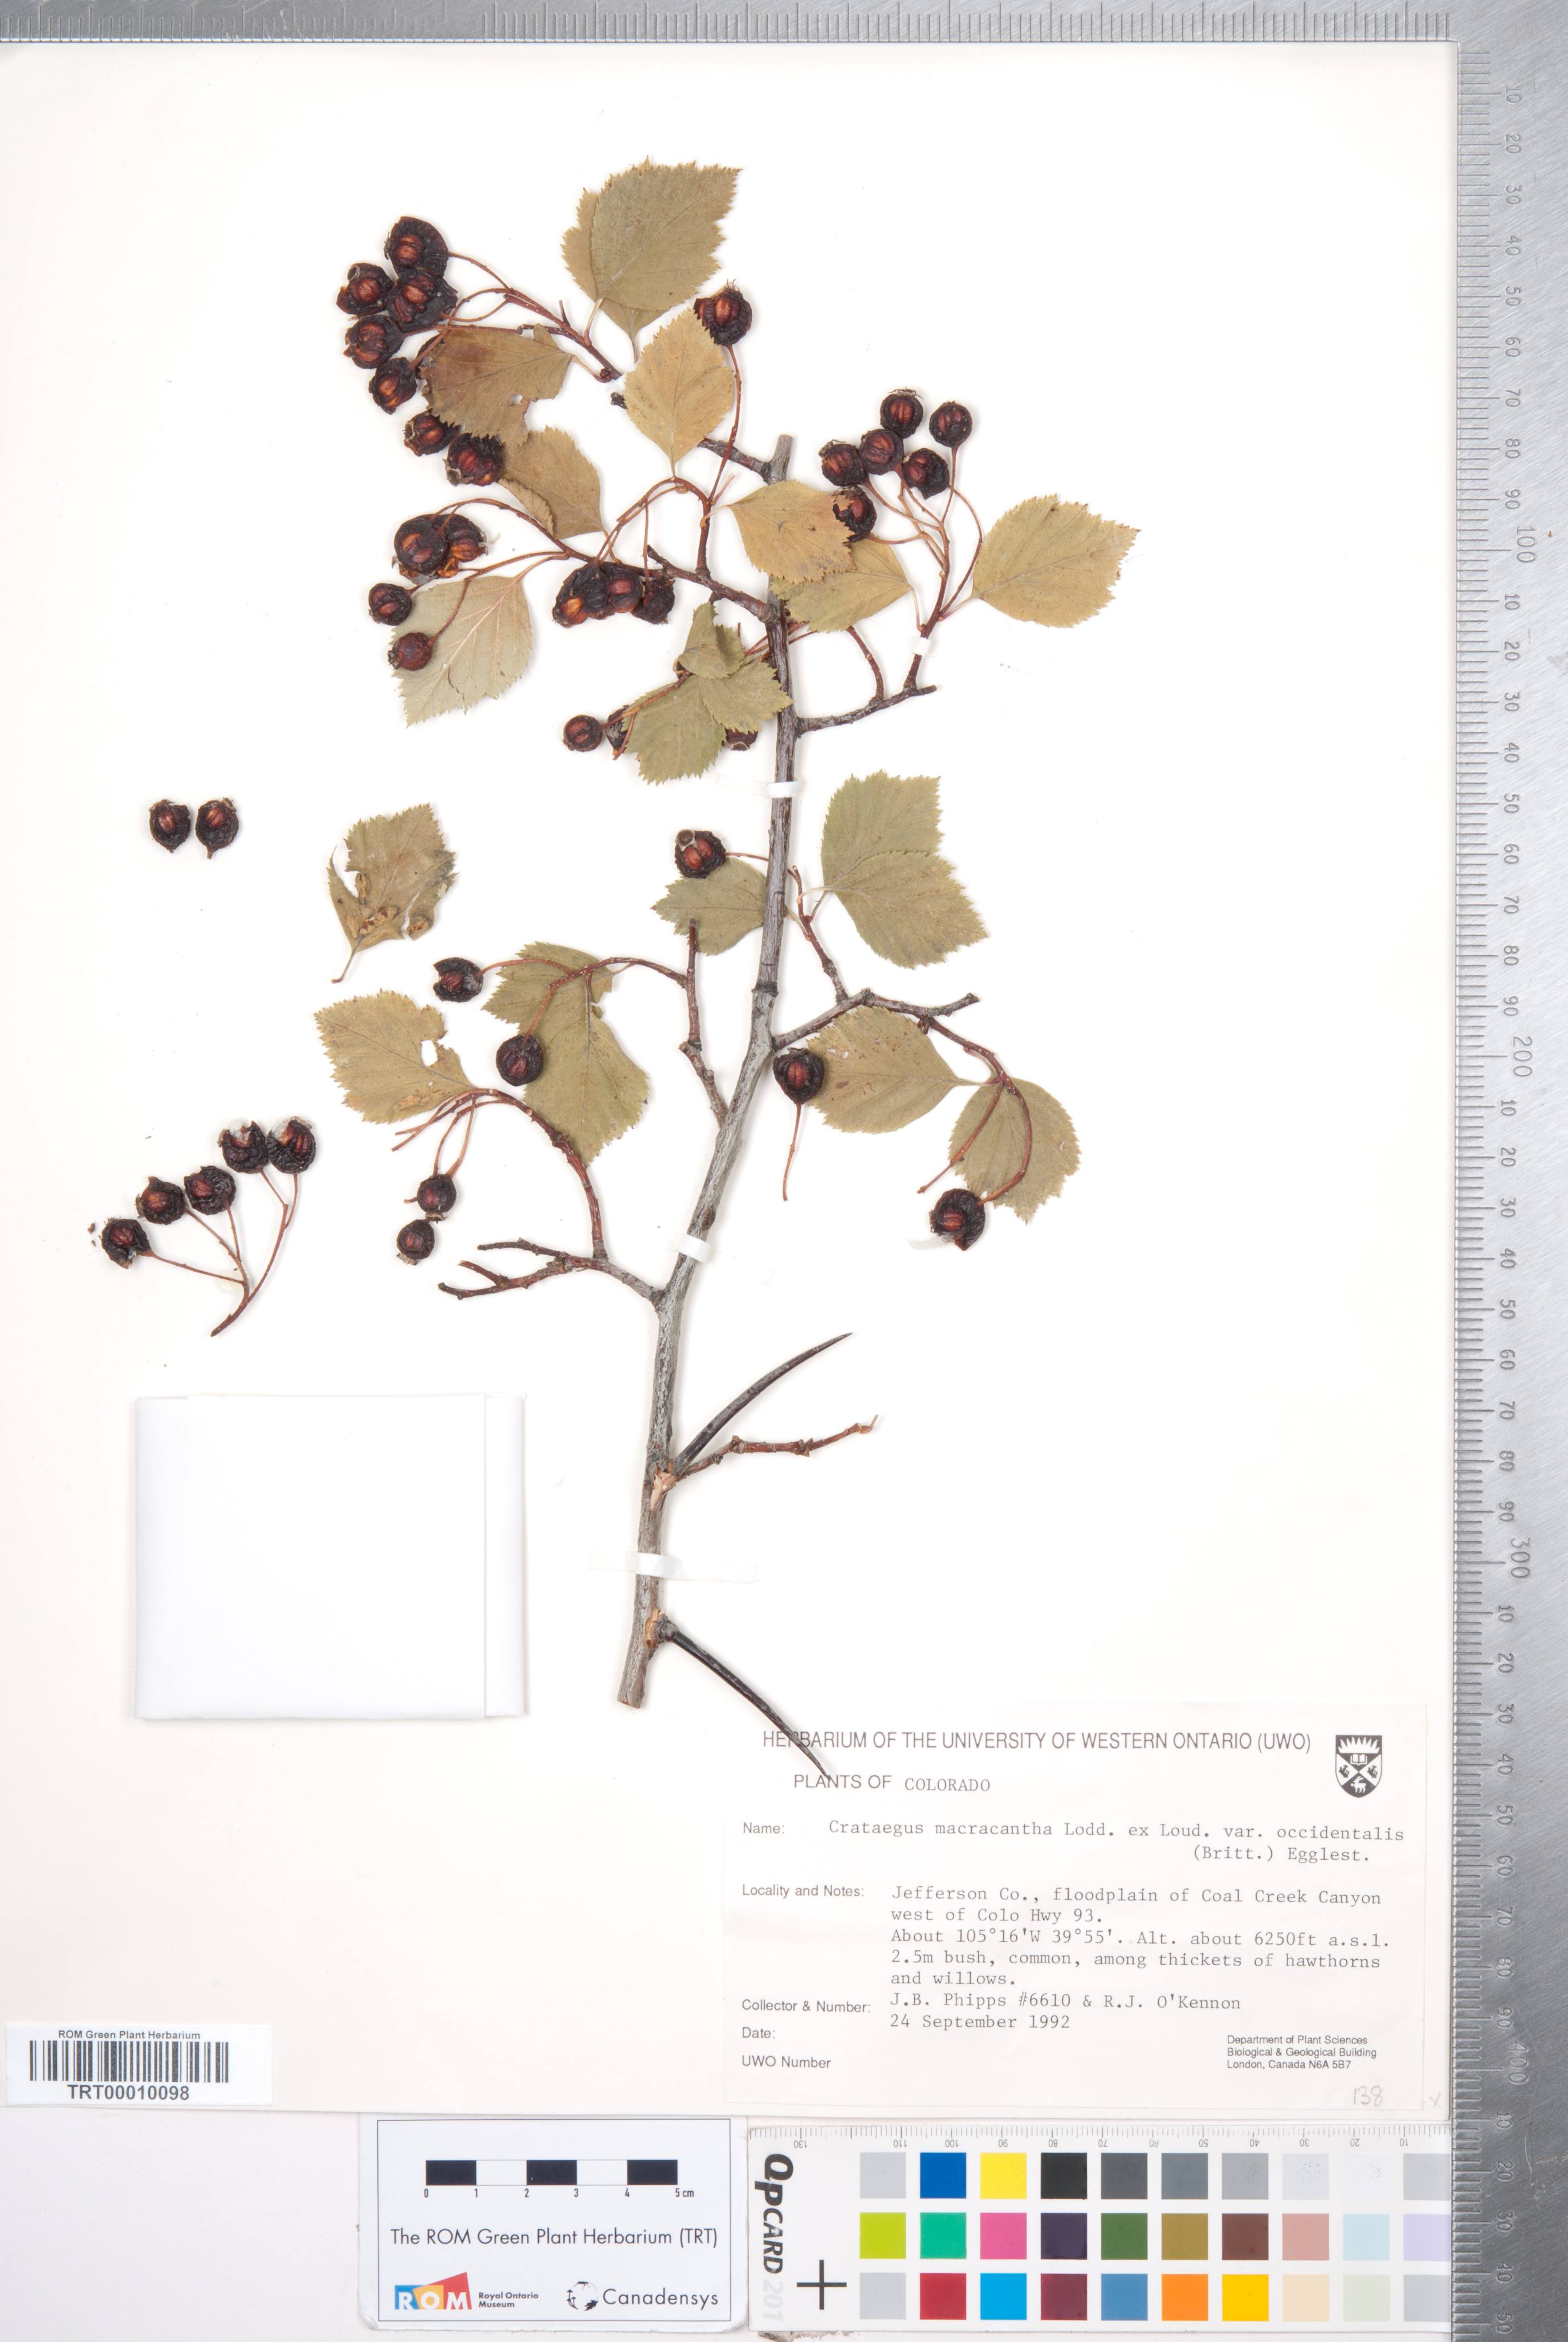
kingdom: Plantae
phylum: Tracheophyta
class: Magnoliopsida
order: Rosales
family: Rosaceae
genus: Crataegus
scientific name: Crataegus macracantha
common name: Large-thorn hawthorn
